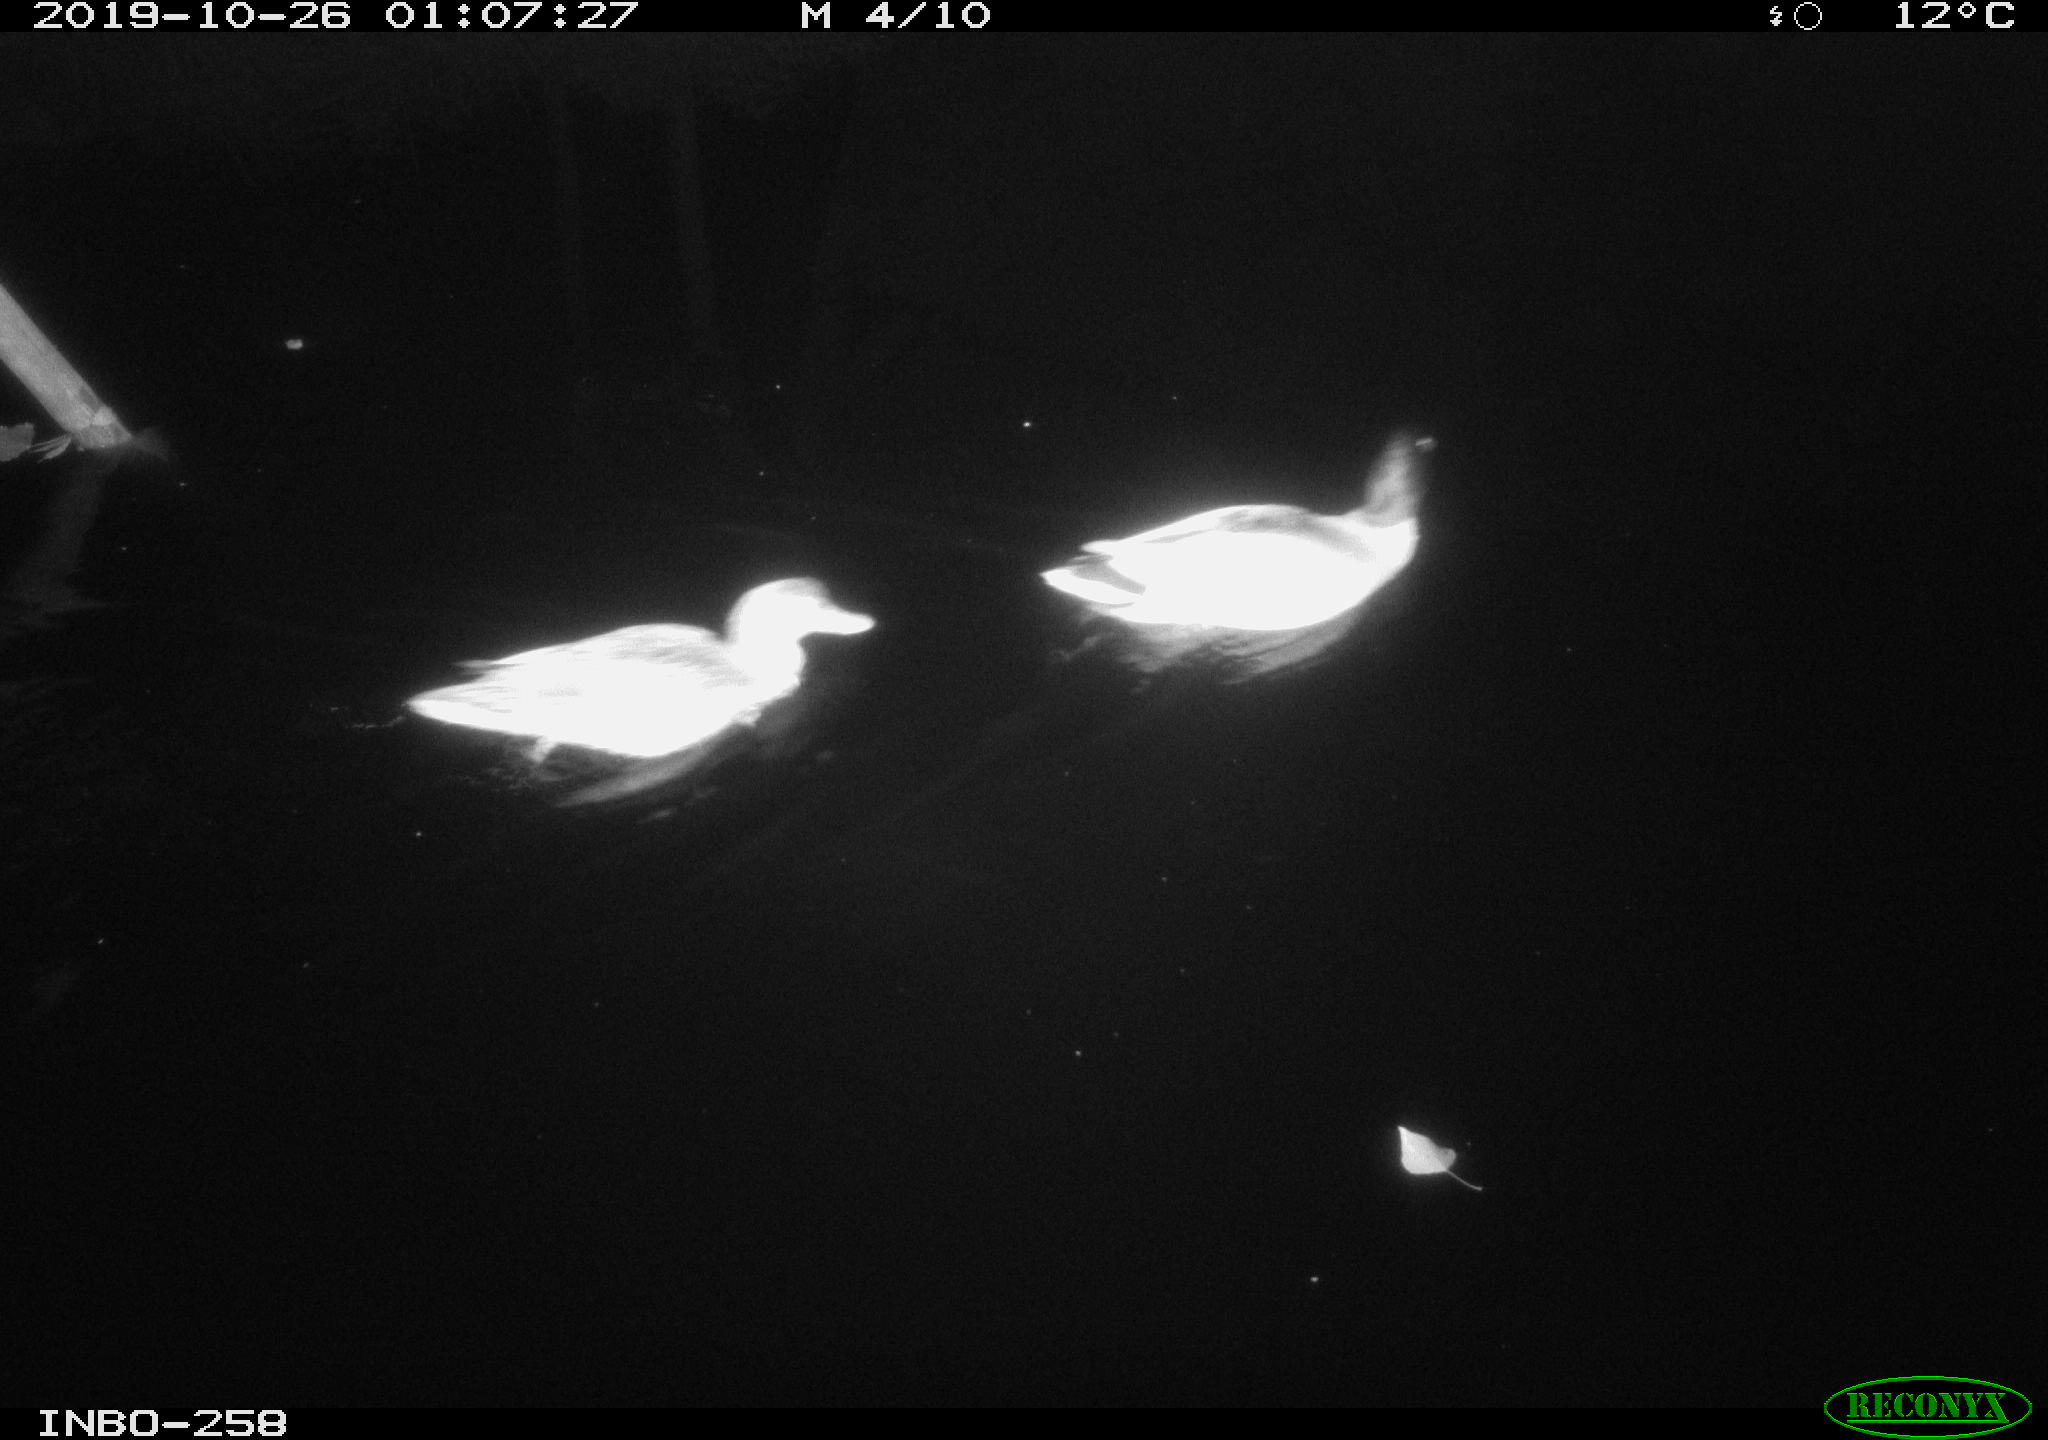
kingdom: Animalia
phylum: Chordata
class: Aves
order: Anseriformes
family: Anatidae
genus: Anas
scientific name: Anas platyrhynchos
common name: Mallard
